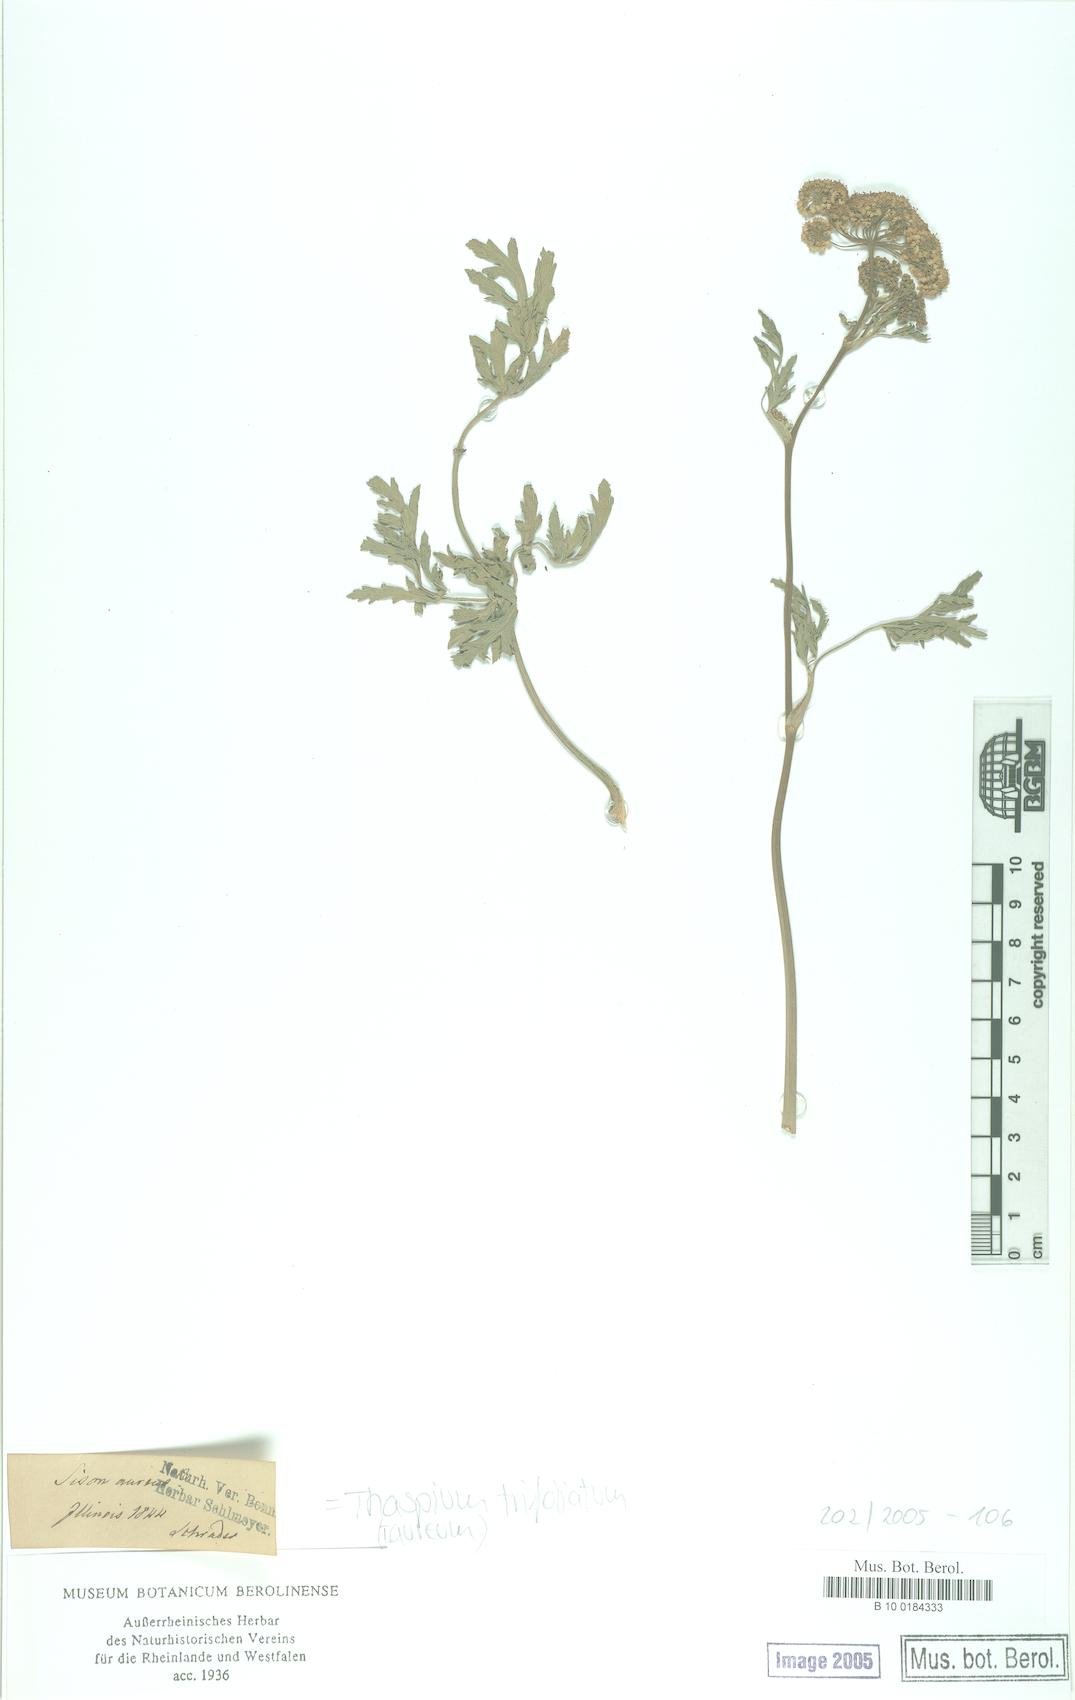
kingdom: Plantae
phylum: Tracheophyta
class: Magnoliopsida
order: Apiales
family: Apiaceae
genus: Thaspium
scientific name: Thaspium trifoliatum
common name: Purple meadow-parsnip
